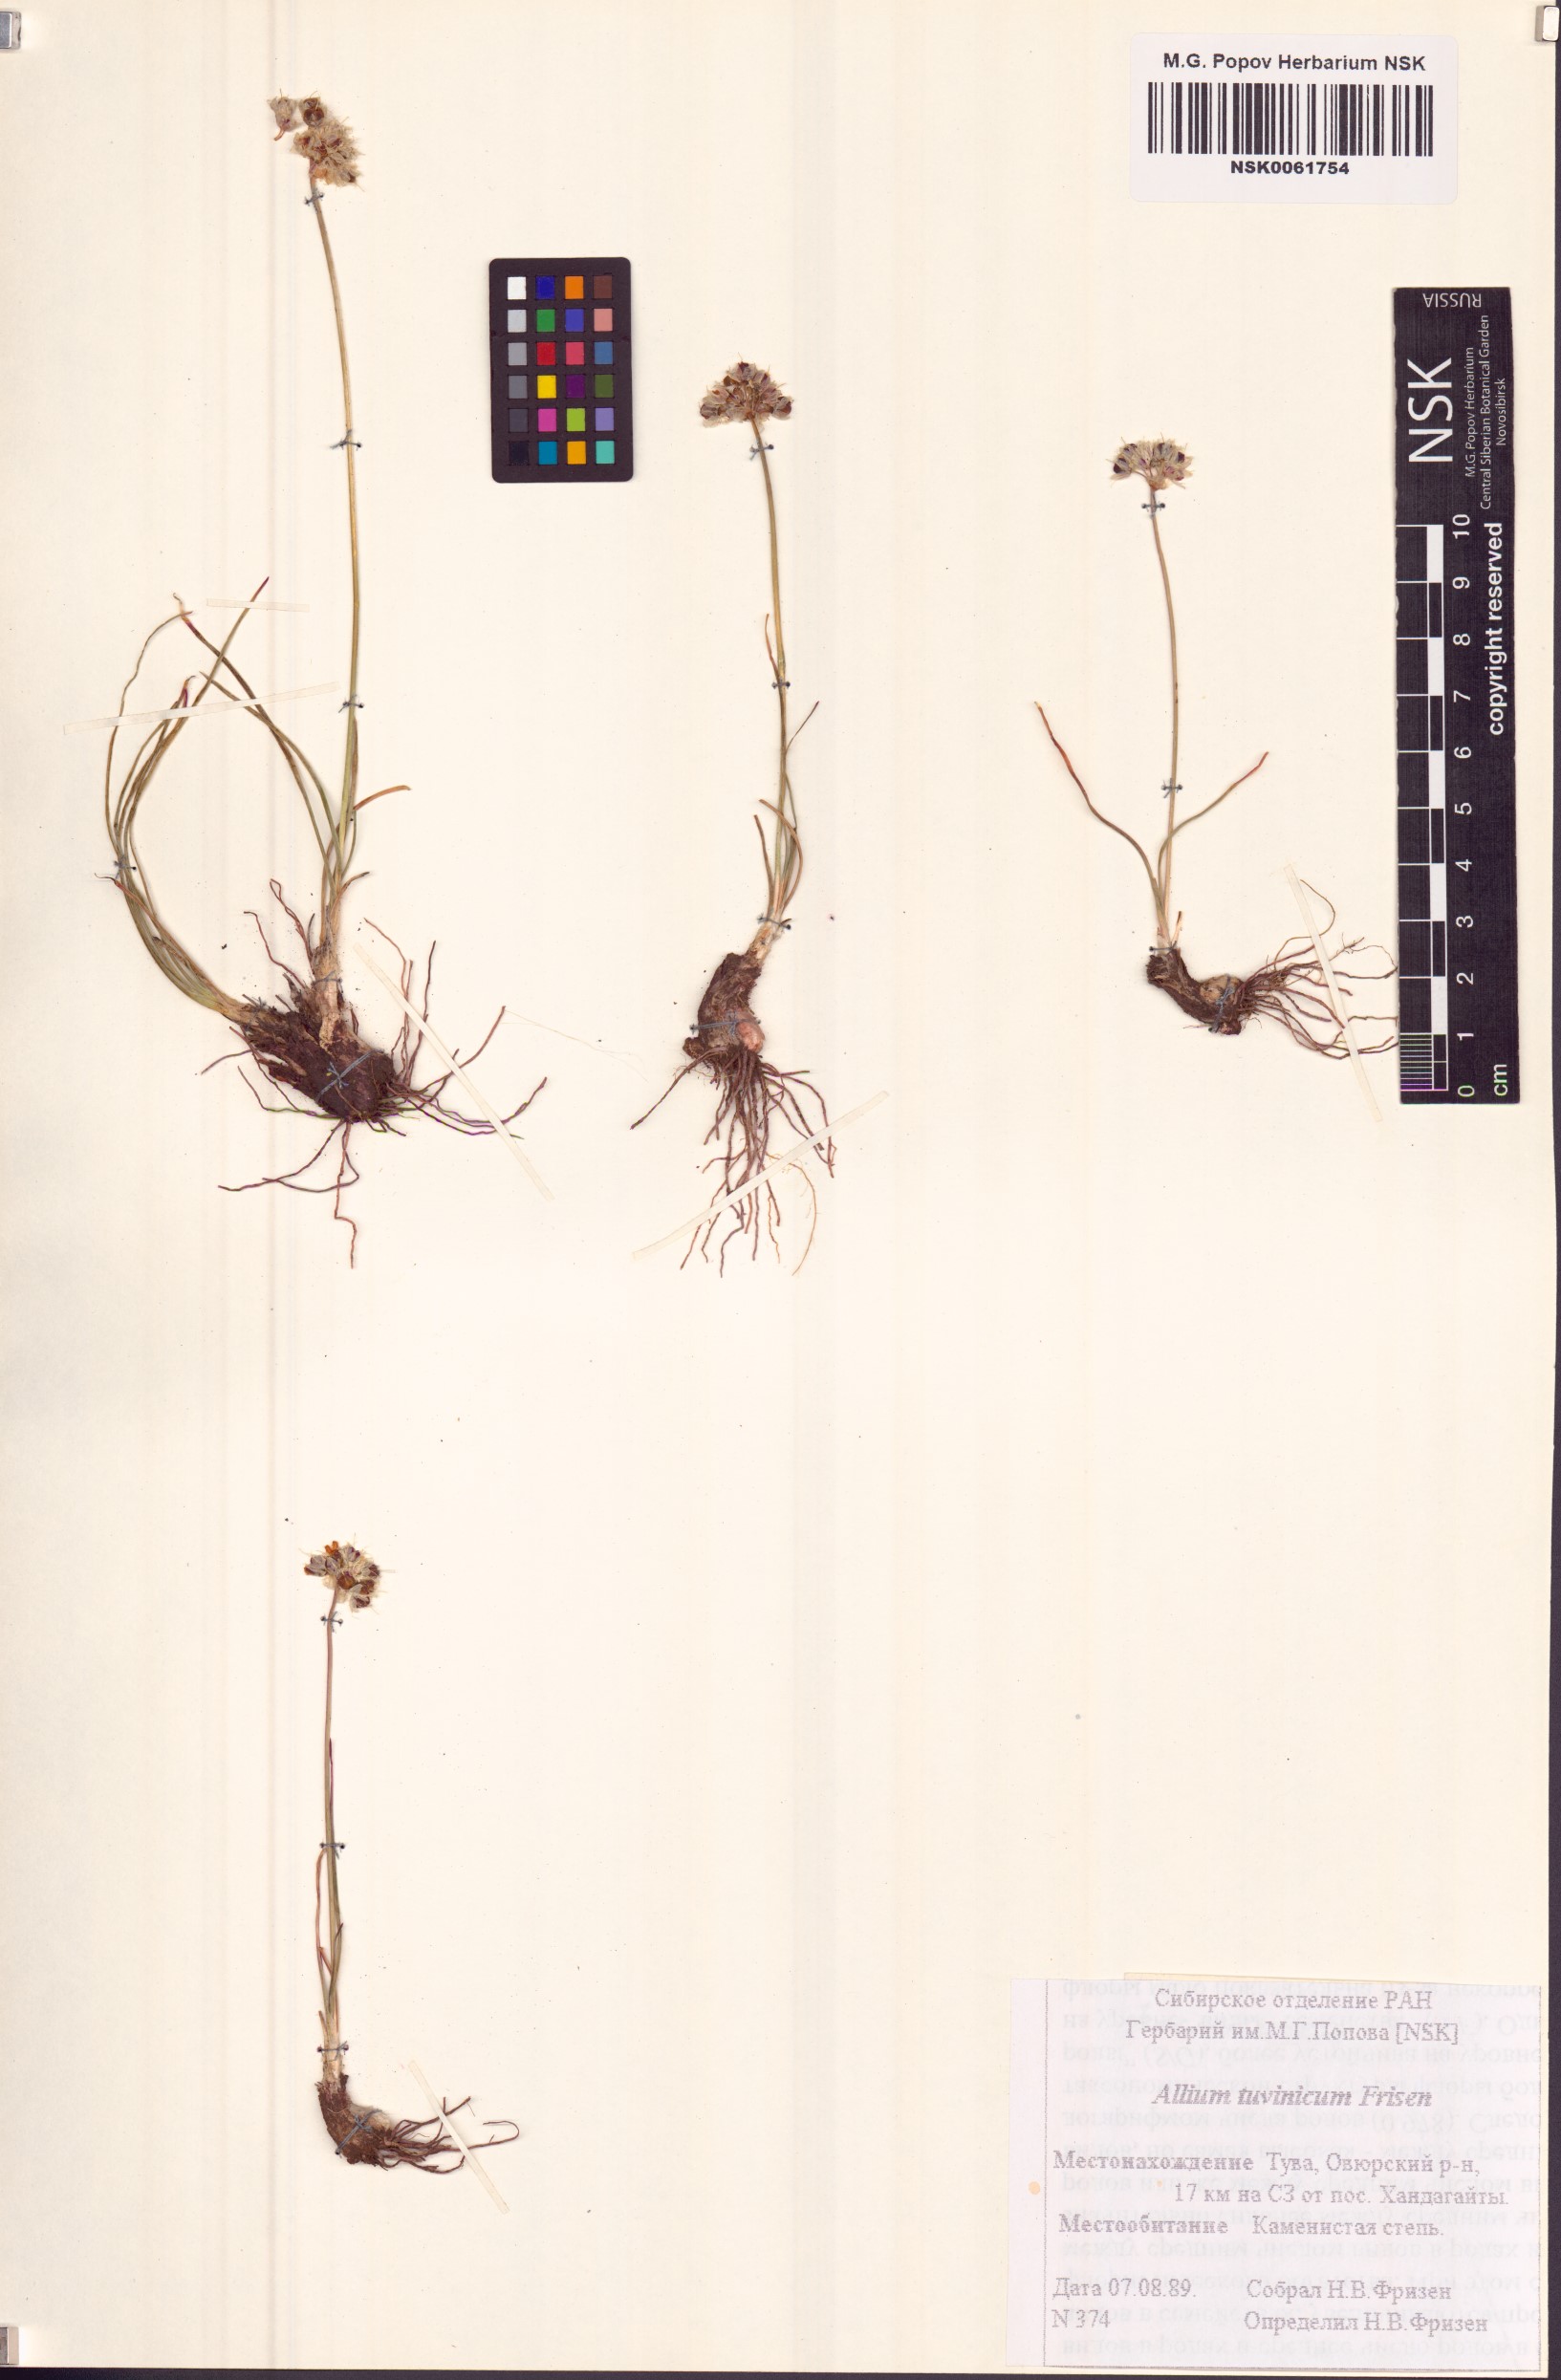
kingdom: Plantae
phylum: Tracheophyta
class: Liliopsida
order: Asparagales
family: Amaryllidaceae
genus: Allium
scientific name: Allium tuvinicum
